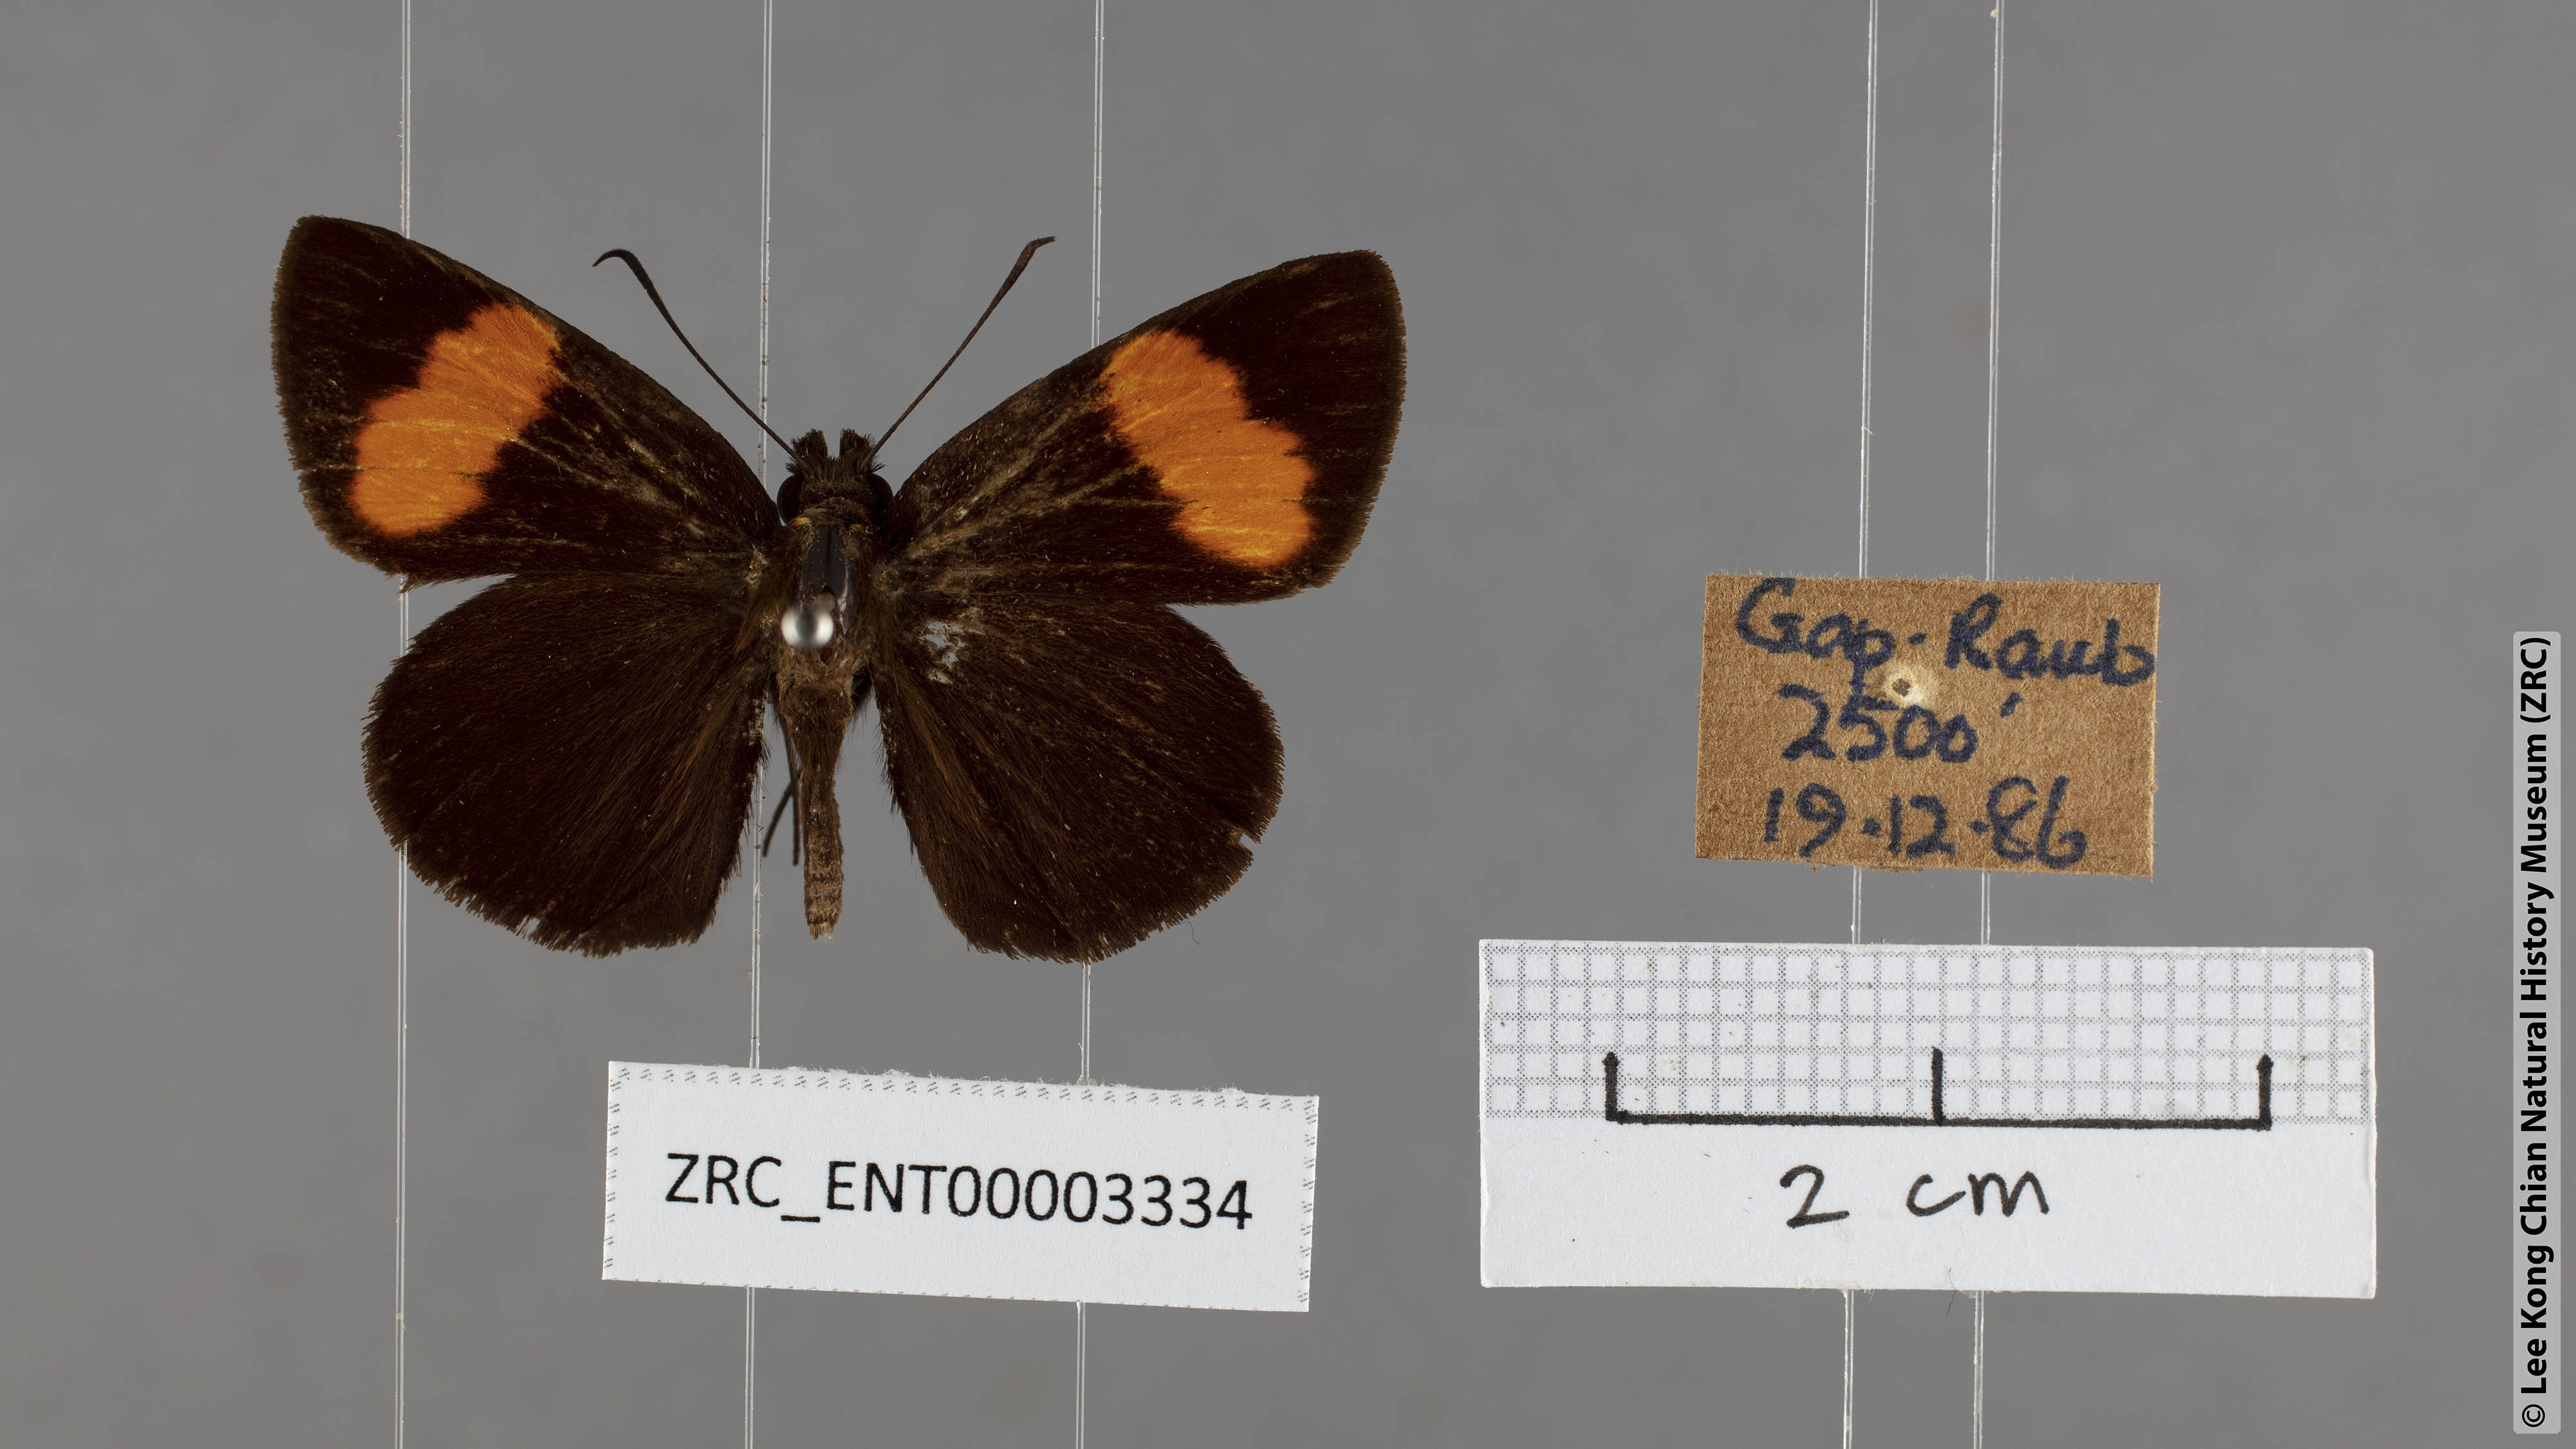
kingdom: Animalia
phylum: Arthropoda
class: Insecta
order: Lepidoptera
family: Hesperiidae
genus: Koruthaialos
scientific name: Koruthaialos sindu
